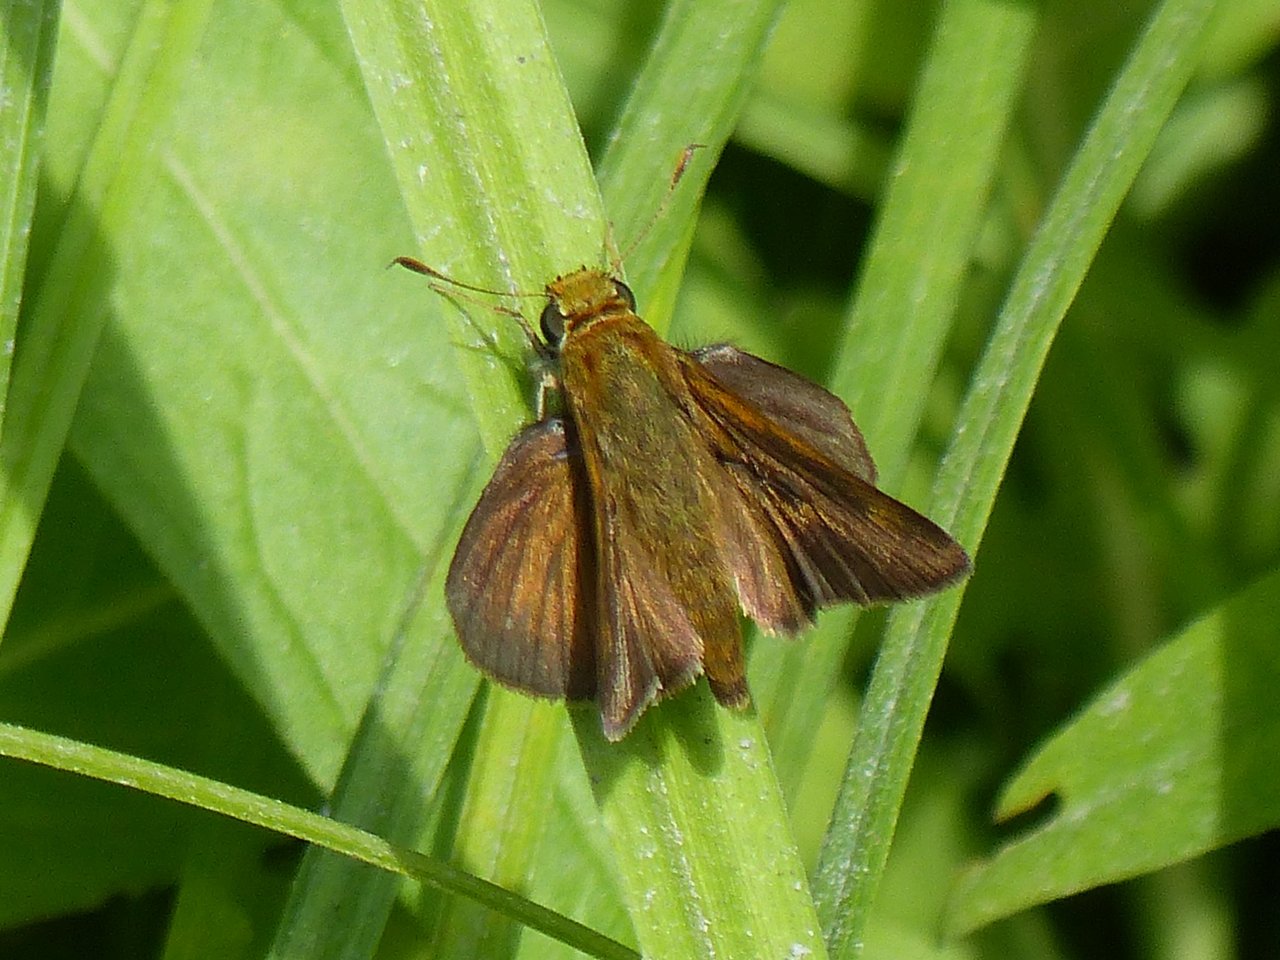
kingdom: Animalia
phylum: Arthropoda
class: Insecta
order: Lepidoptera
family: Hesperiidae
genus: Euphyes
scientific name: Euphyes vestris
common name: Dun Skipper
